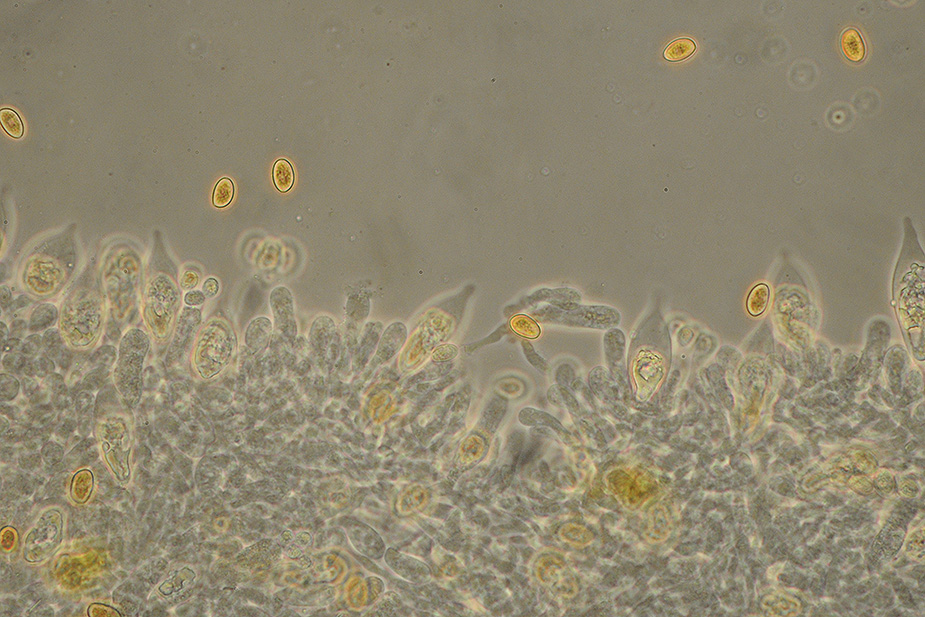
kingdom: Fungi
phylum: Basidiomycota
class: Agaricomycetes
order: Agaricales
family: Strophariaceae
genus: Hypholoma
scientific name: Hypholoma
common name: svovlhat
